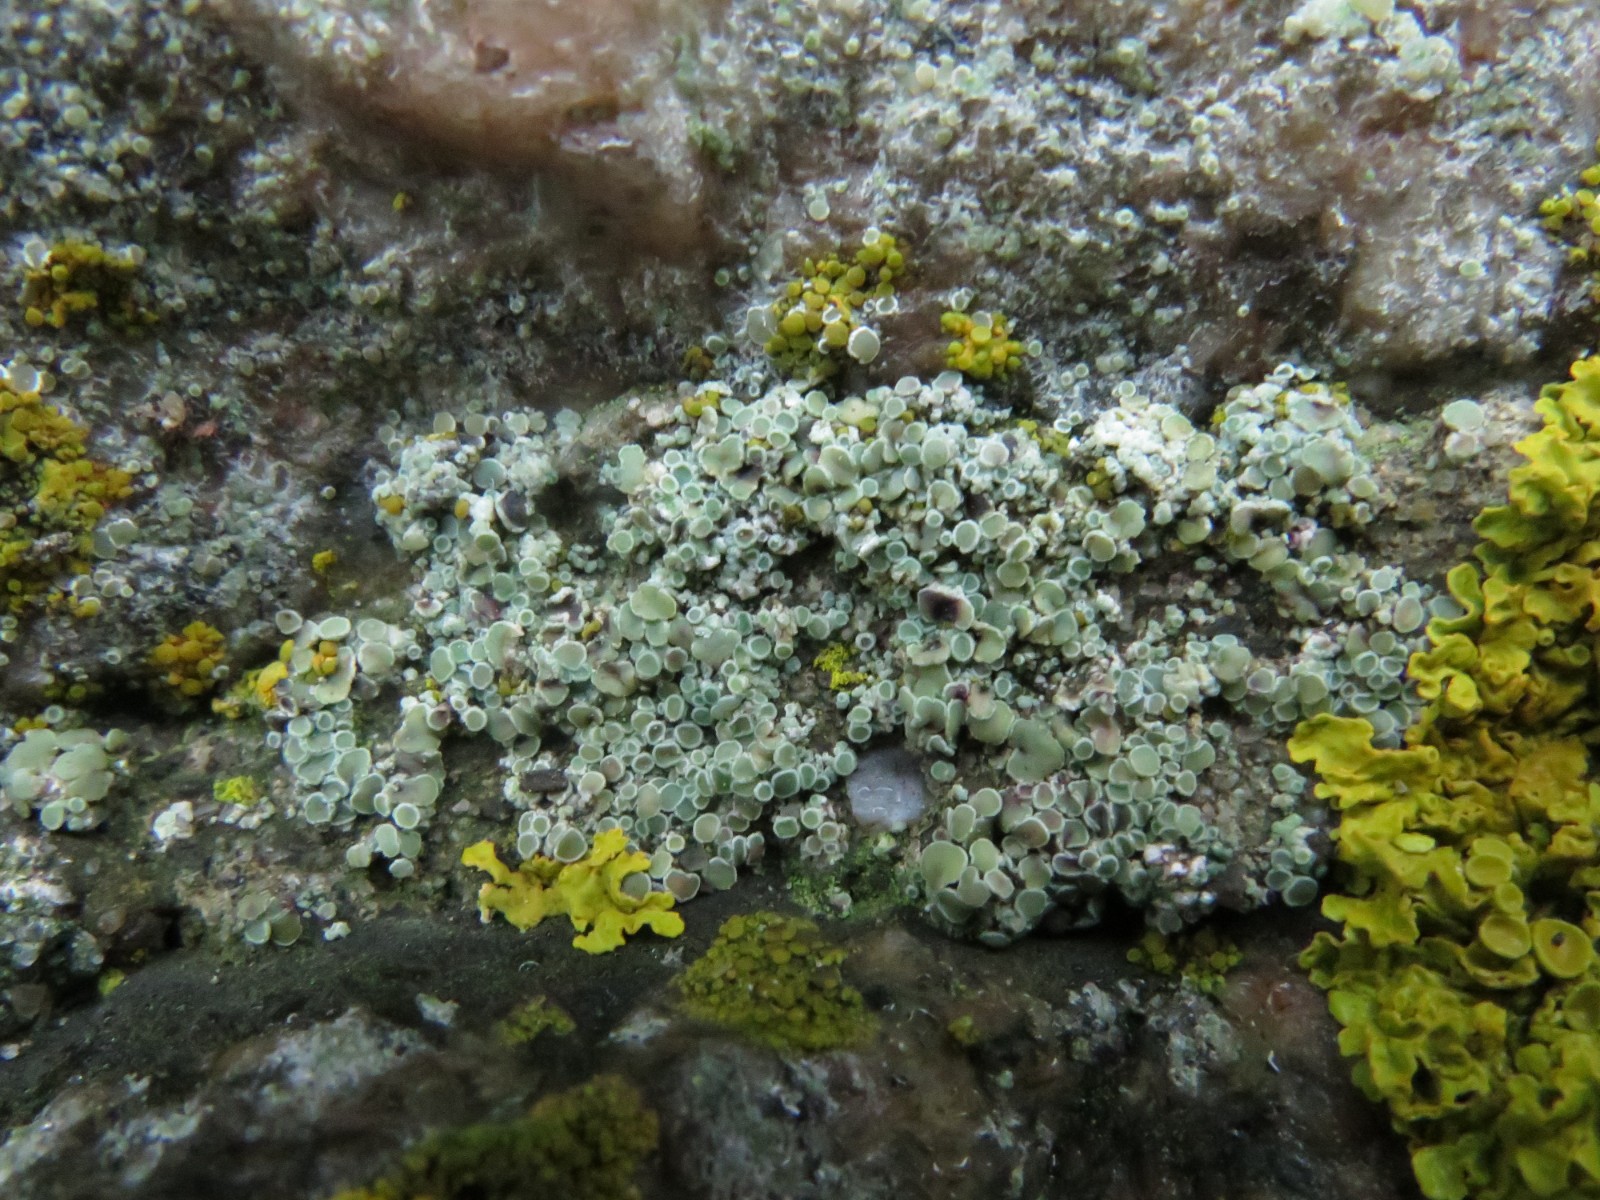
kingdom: Fungi
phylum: Ascomycota
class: Lecanoromycetes
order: Lecanorales
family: Lecanoraceae
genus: Lecanora
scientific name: Lecanora polytropa
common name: bleggrøn kantskivelav
